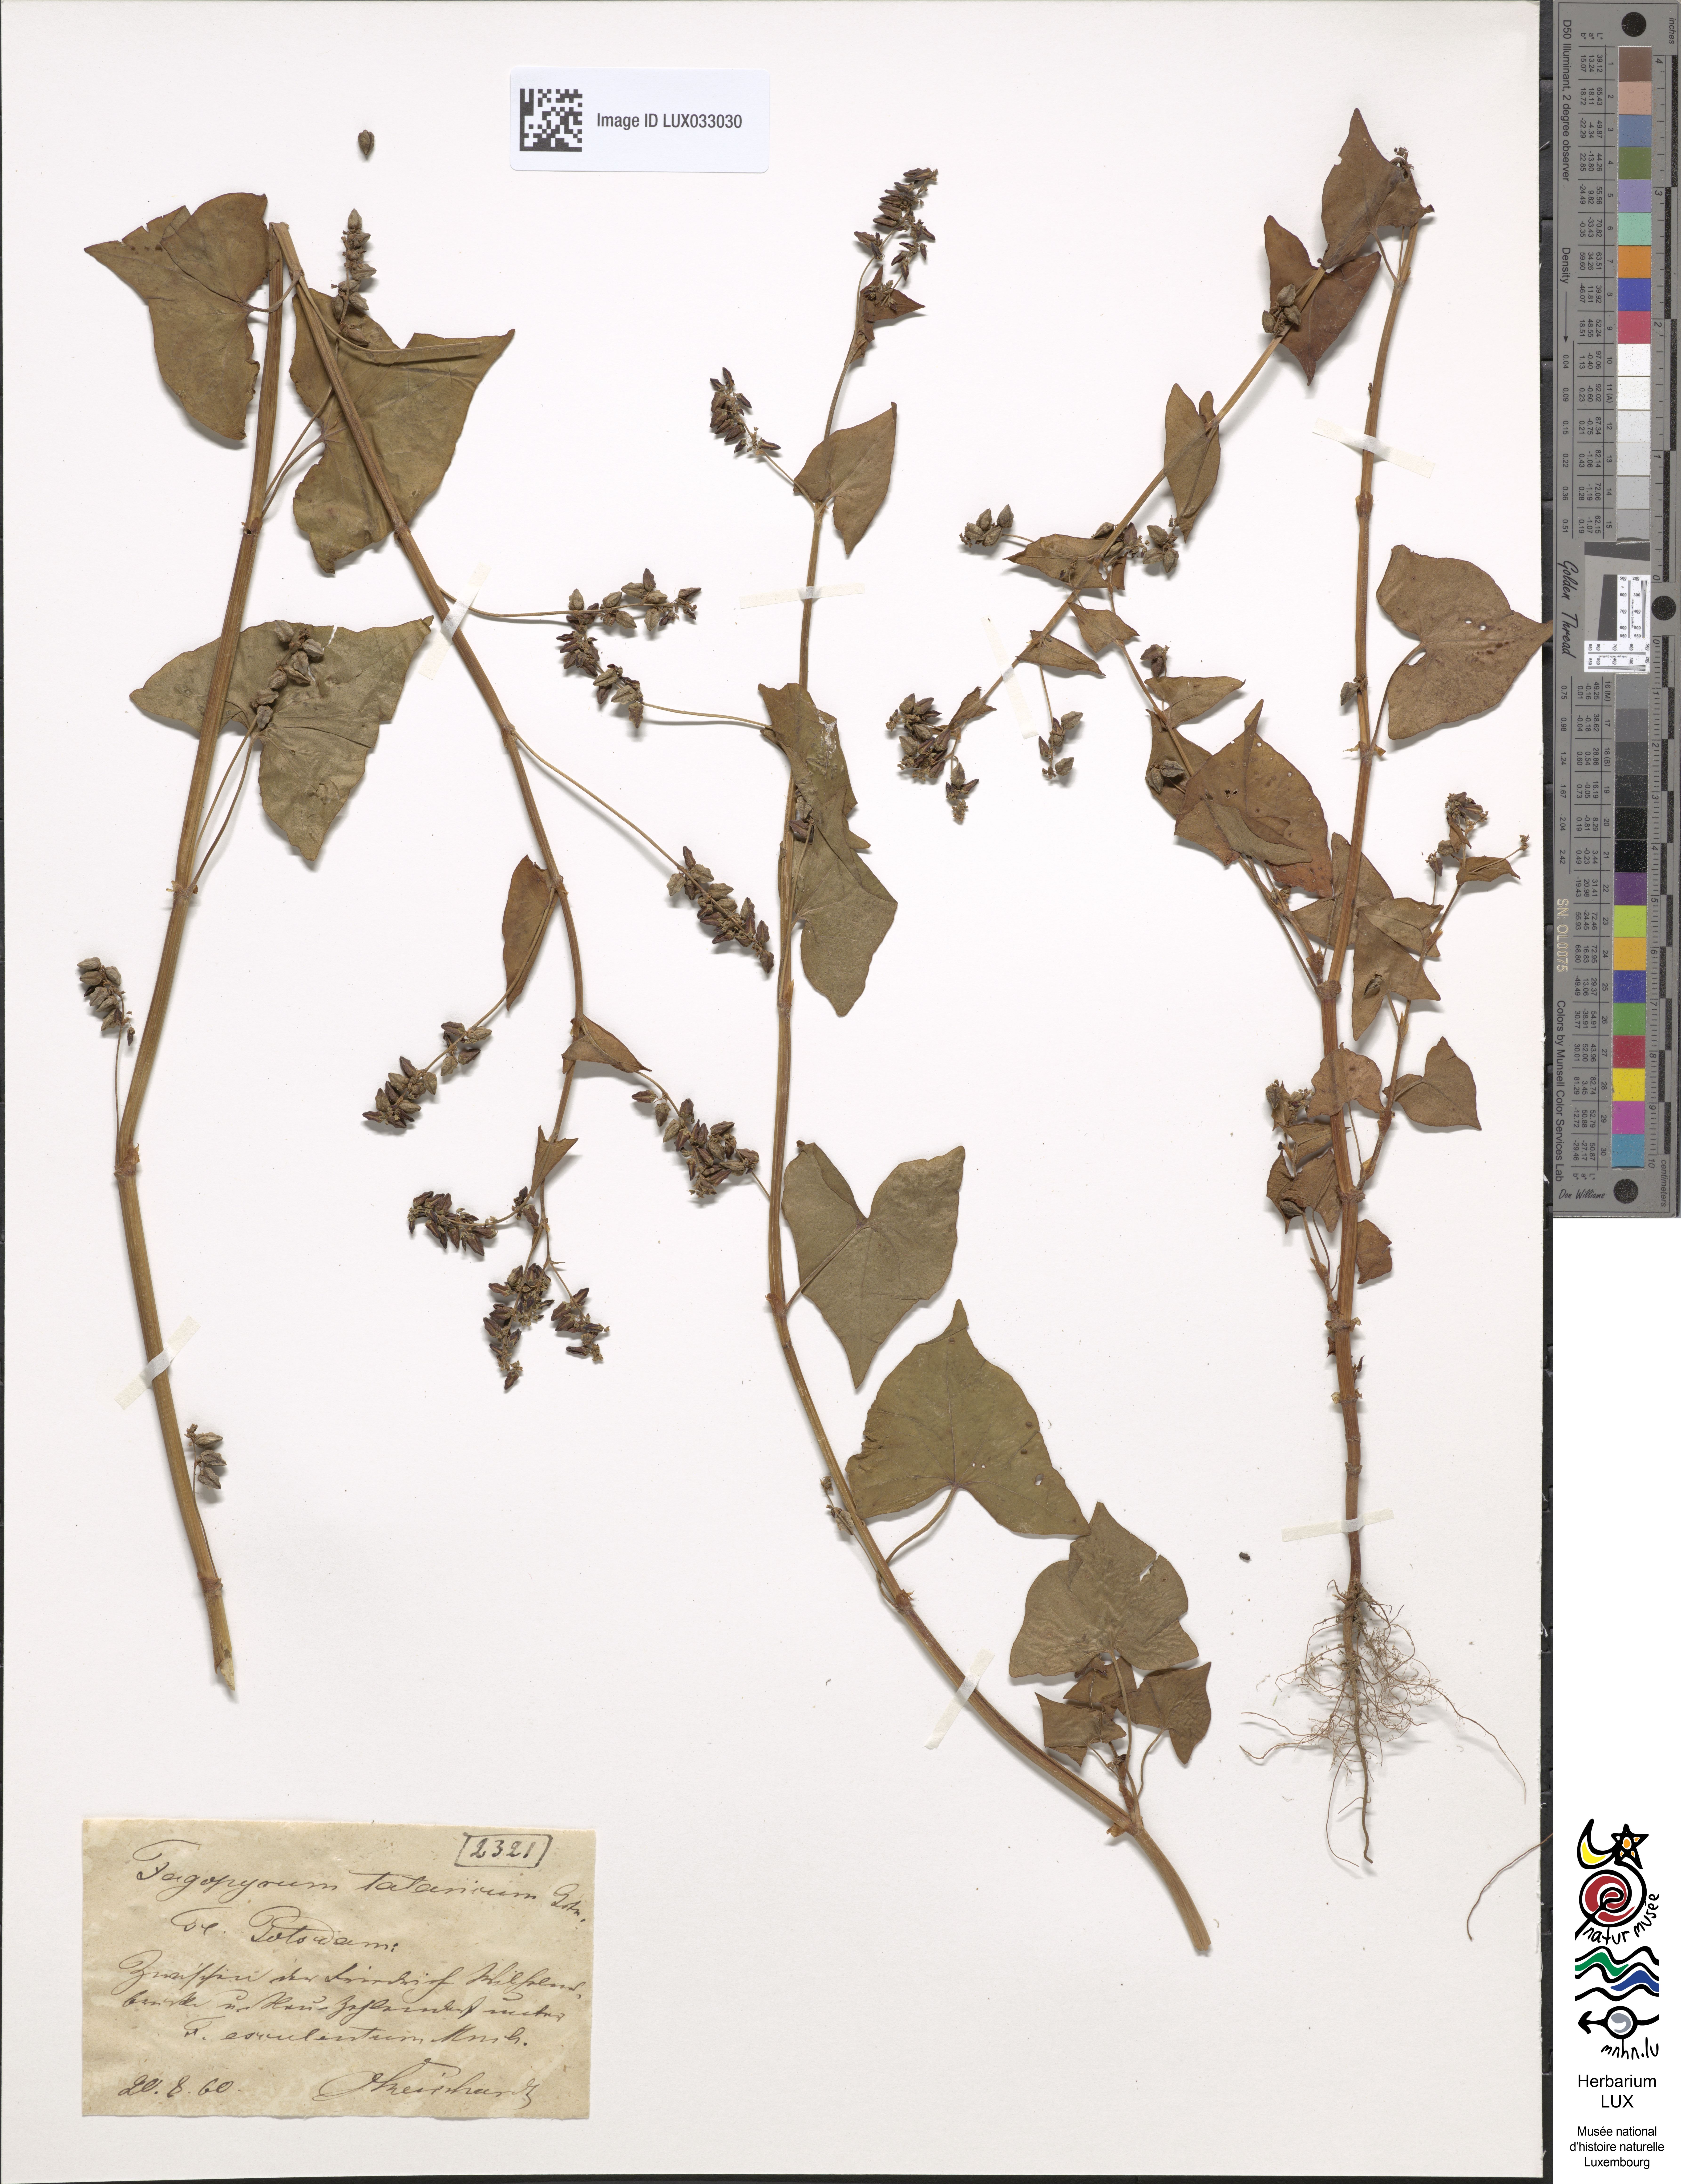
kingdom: Plantae
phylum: Tracheophyta
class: Magnoliopsida
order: Caryophyllales
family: Polygonaceae
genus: Fagopyrum
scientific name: Fagopyrum tataricum
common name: Green buckwheat
